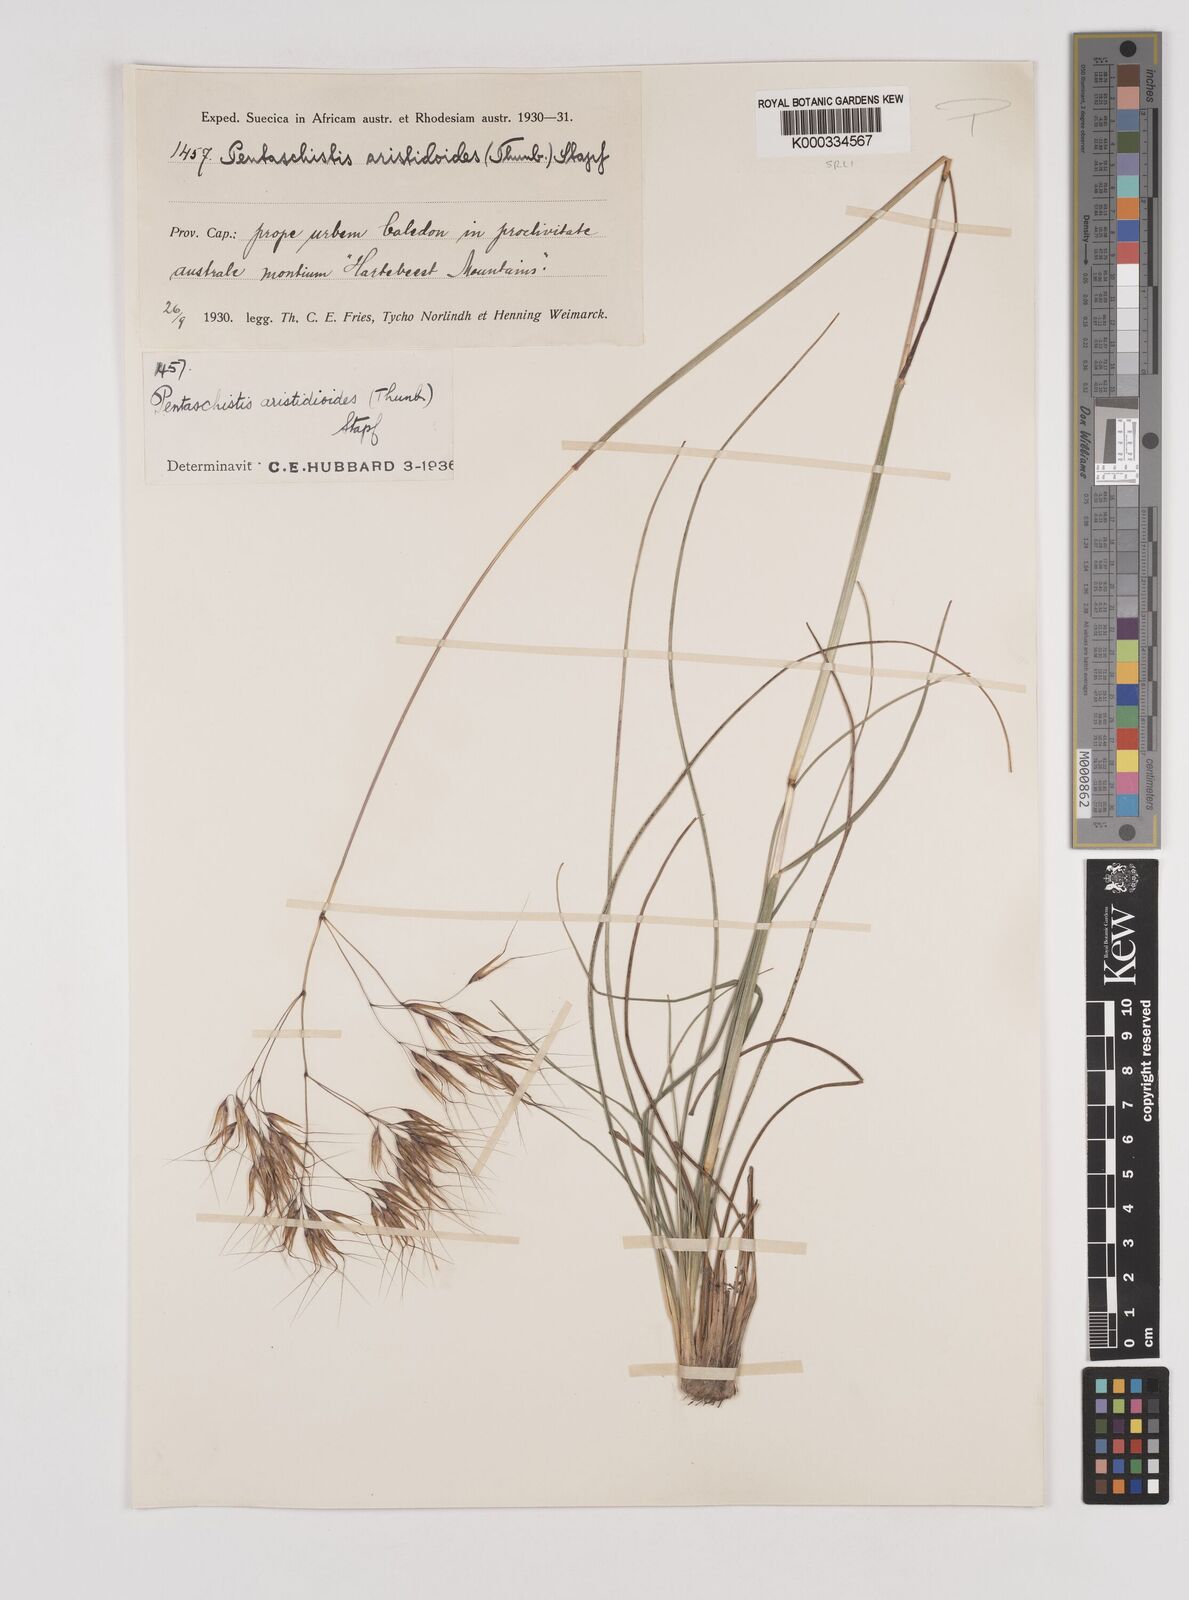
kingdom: Plantae
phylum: Tracheophyta
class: Liliopsida
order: Poales
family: Poaceae
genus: Pentameris
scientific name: Pentameris aristidoides
